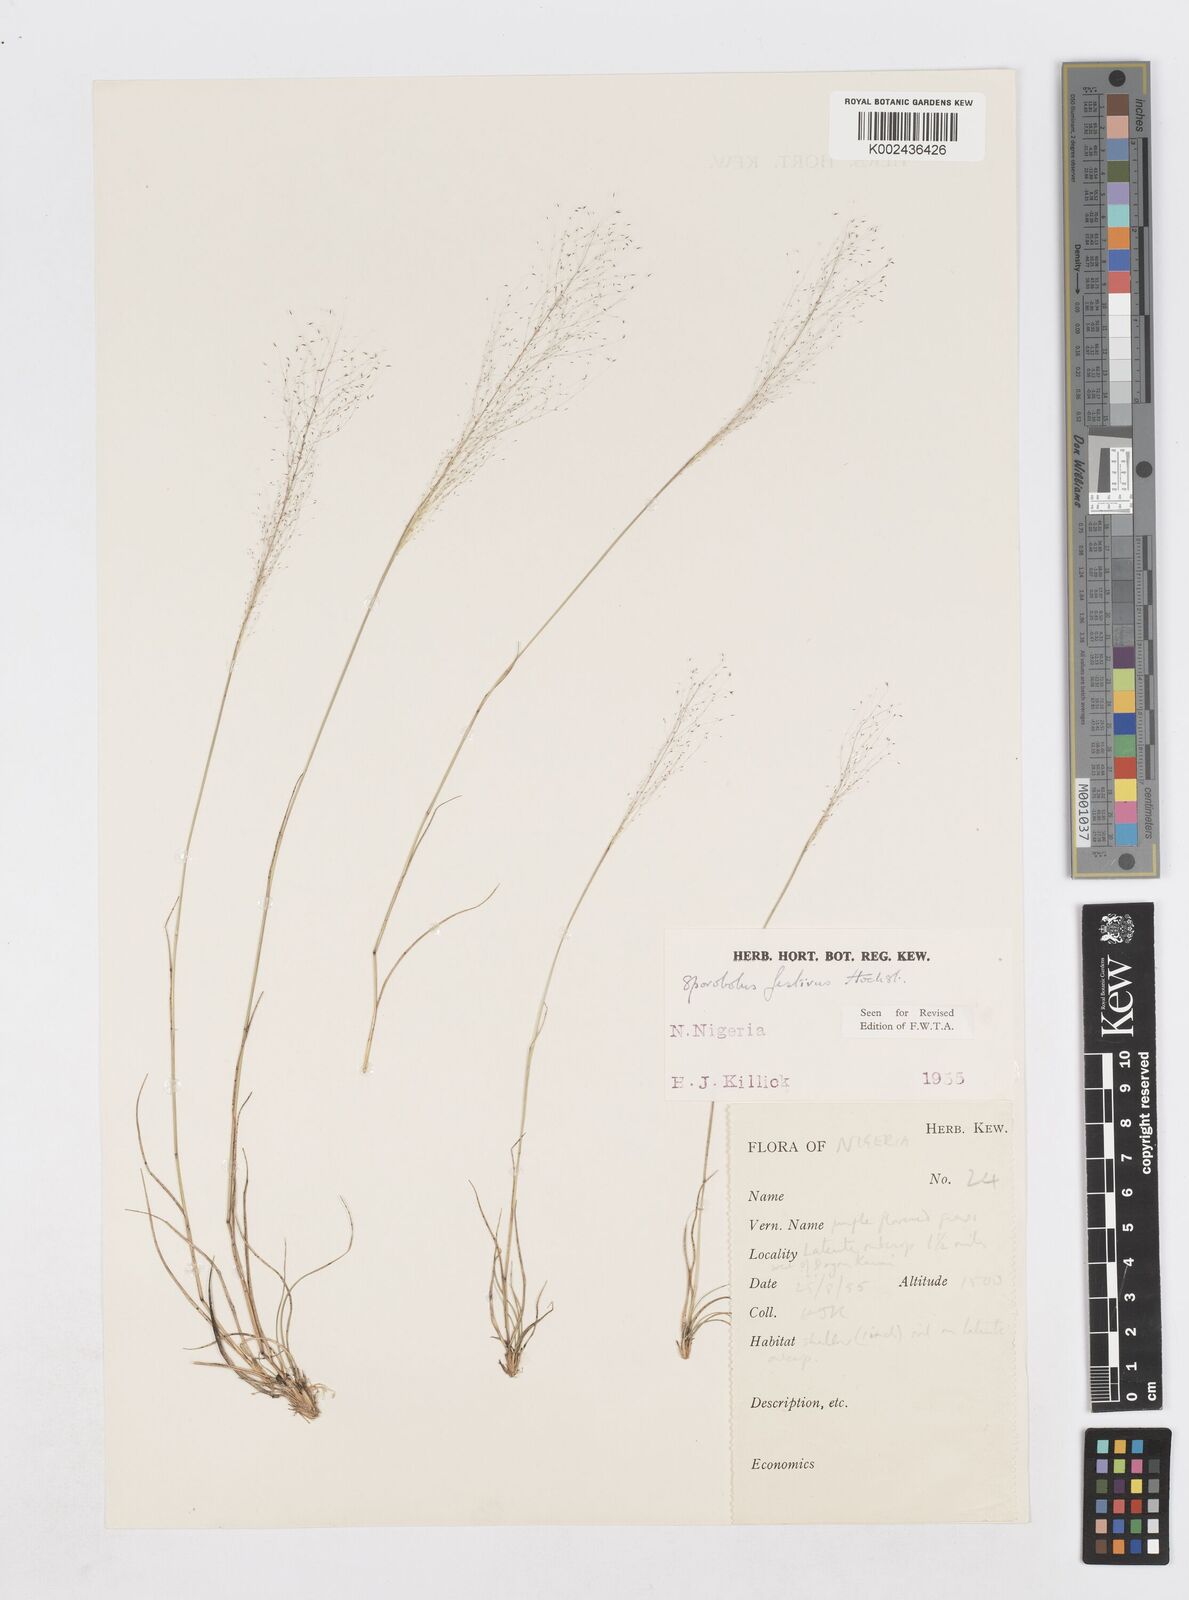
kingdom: Plantae
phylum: Tracheophyta
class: Liliopsida
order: Poales
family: Poaceae
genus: Sporobolus
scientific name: Sporobolus festivus
